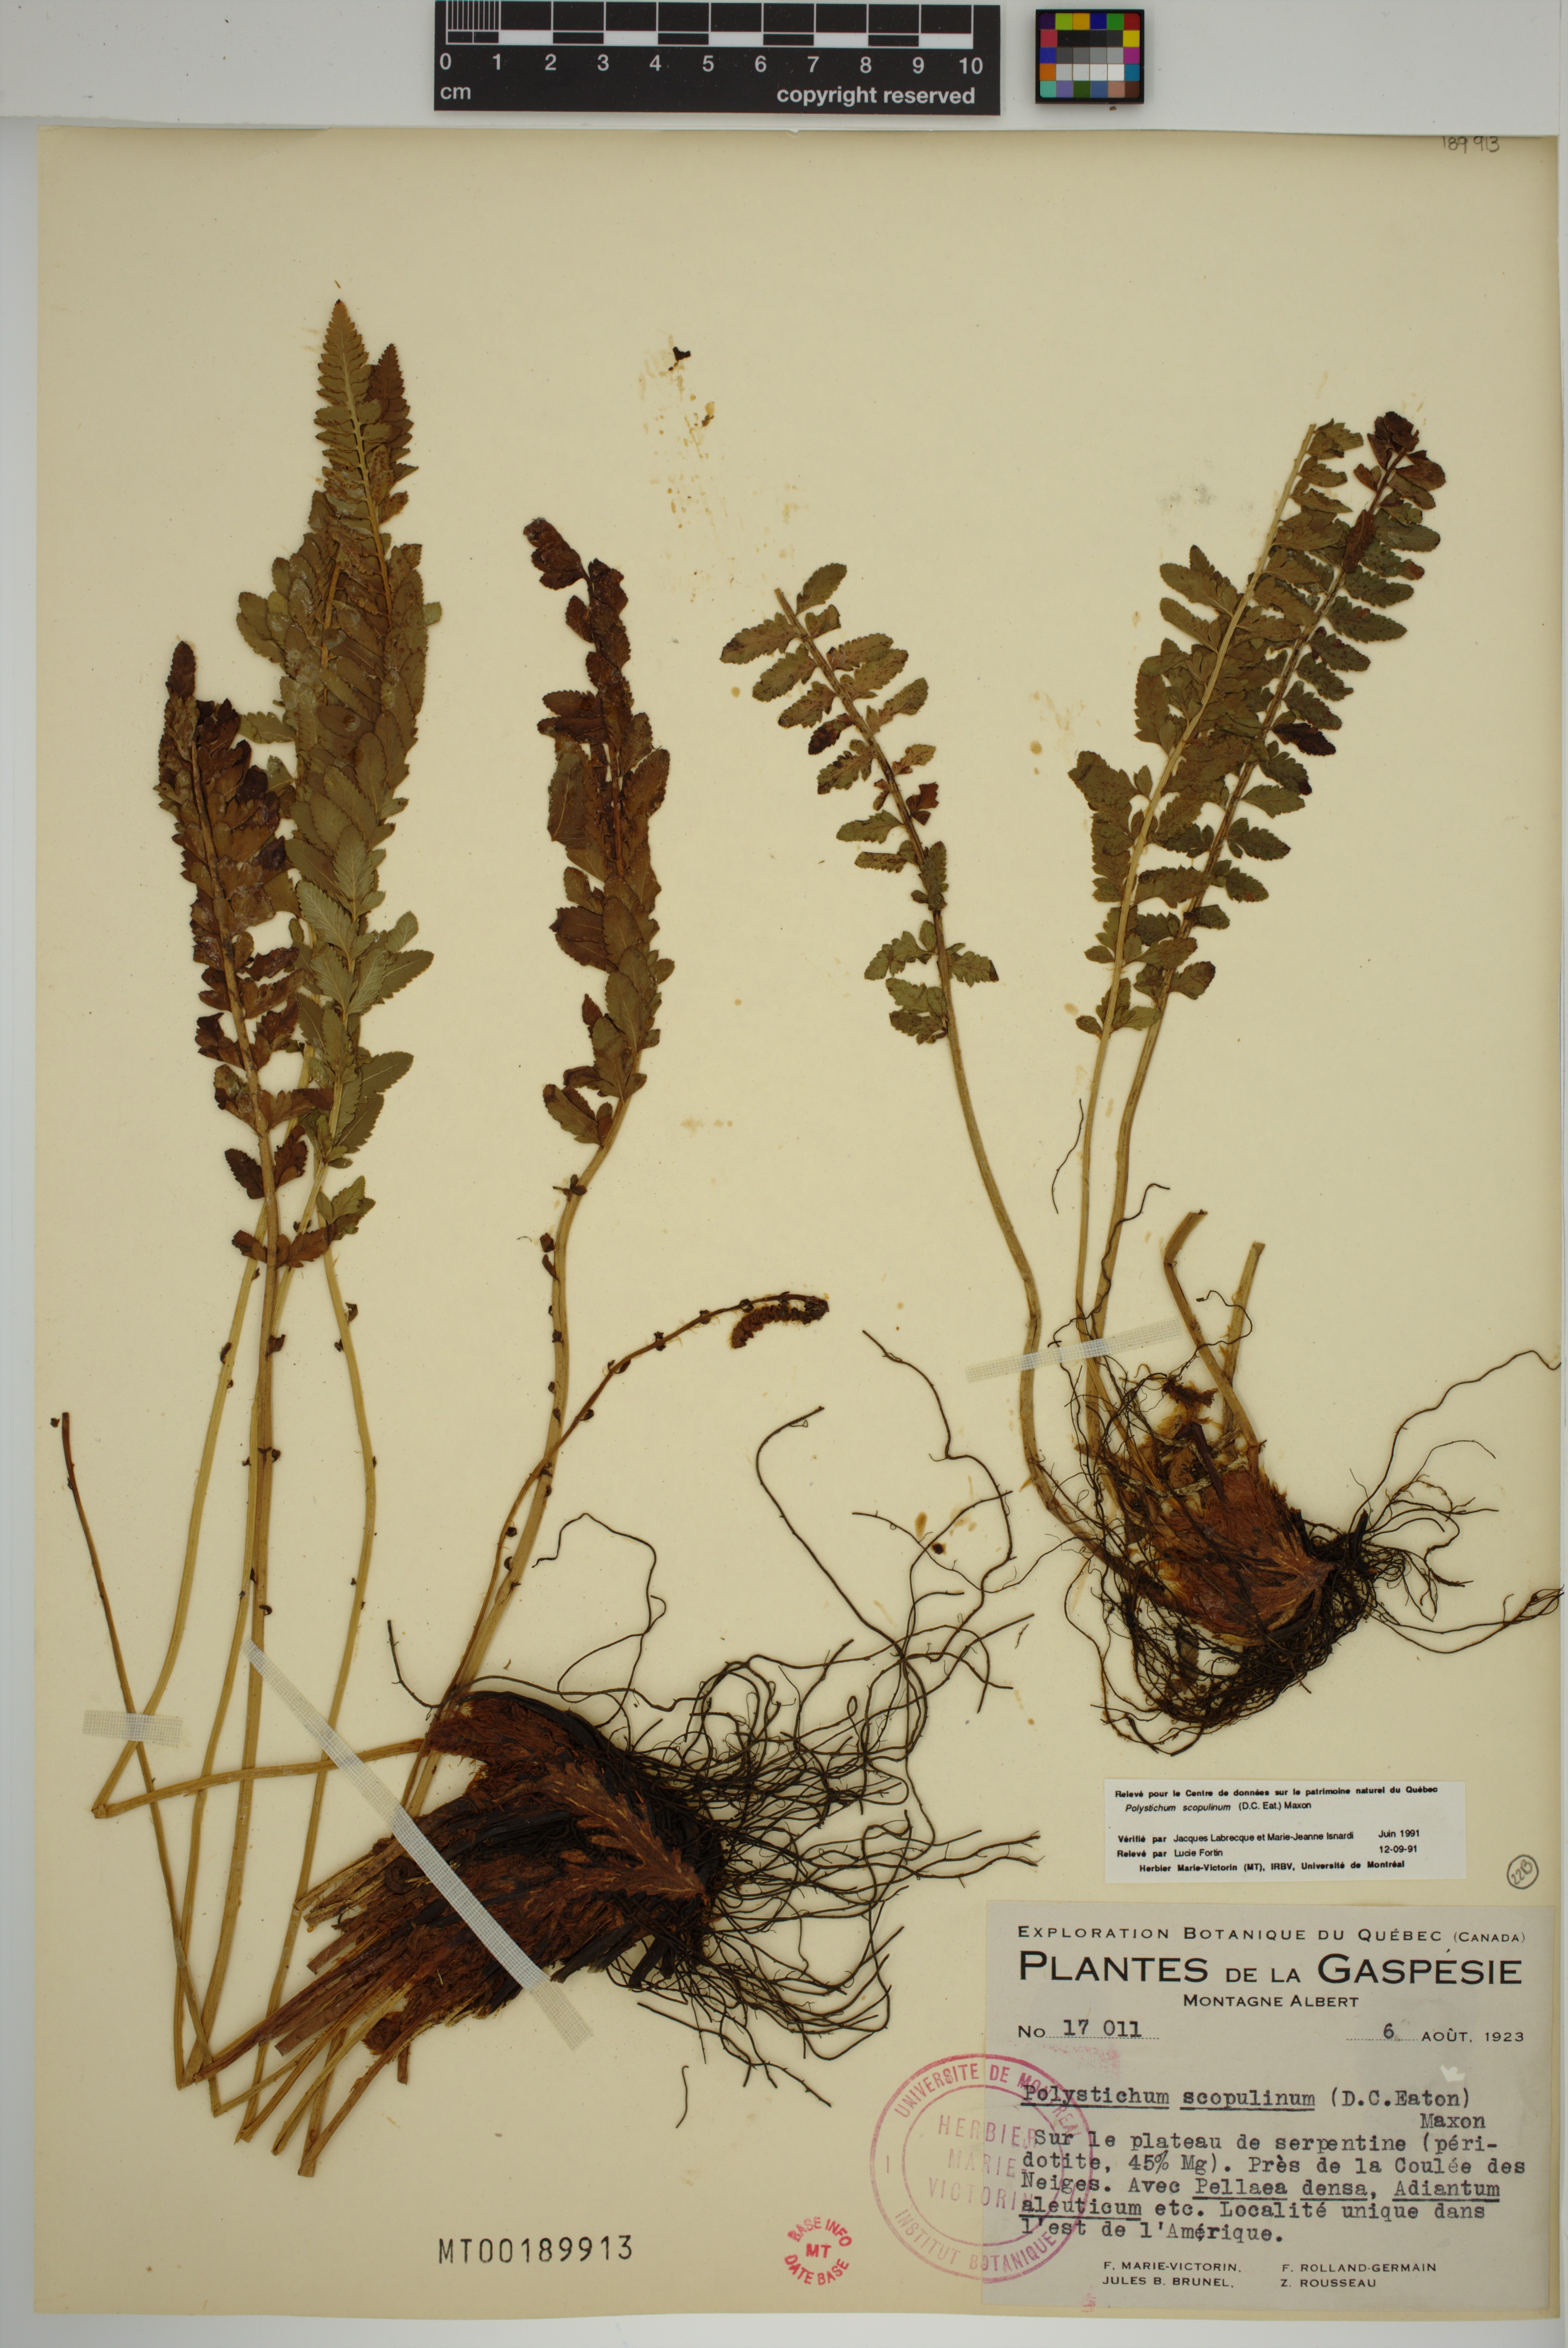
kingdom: Plantae
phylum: Tracheophyta
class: Polypodiopsida
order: Polypodiales
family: Dryopteridaceae
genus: Polystichum
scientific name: Polystichum scopulinum
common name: Eaton's shield fern
